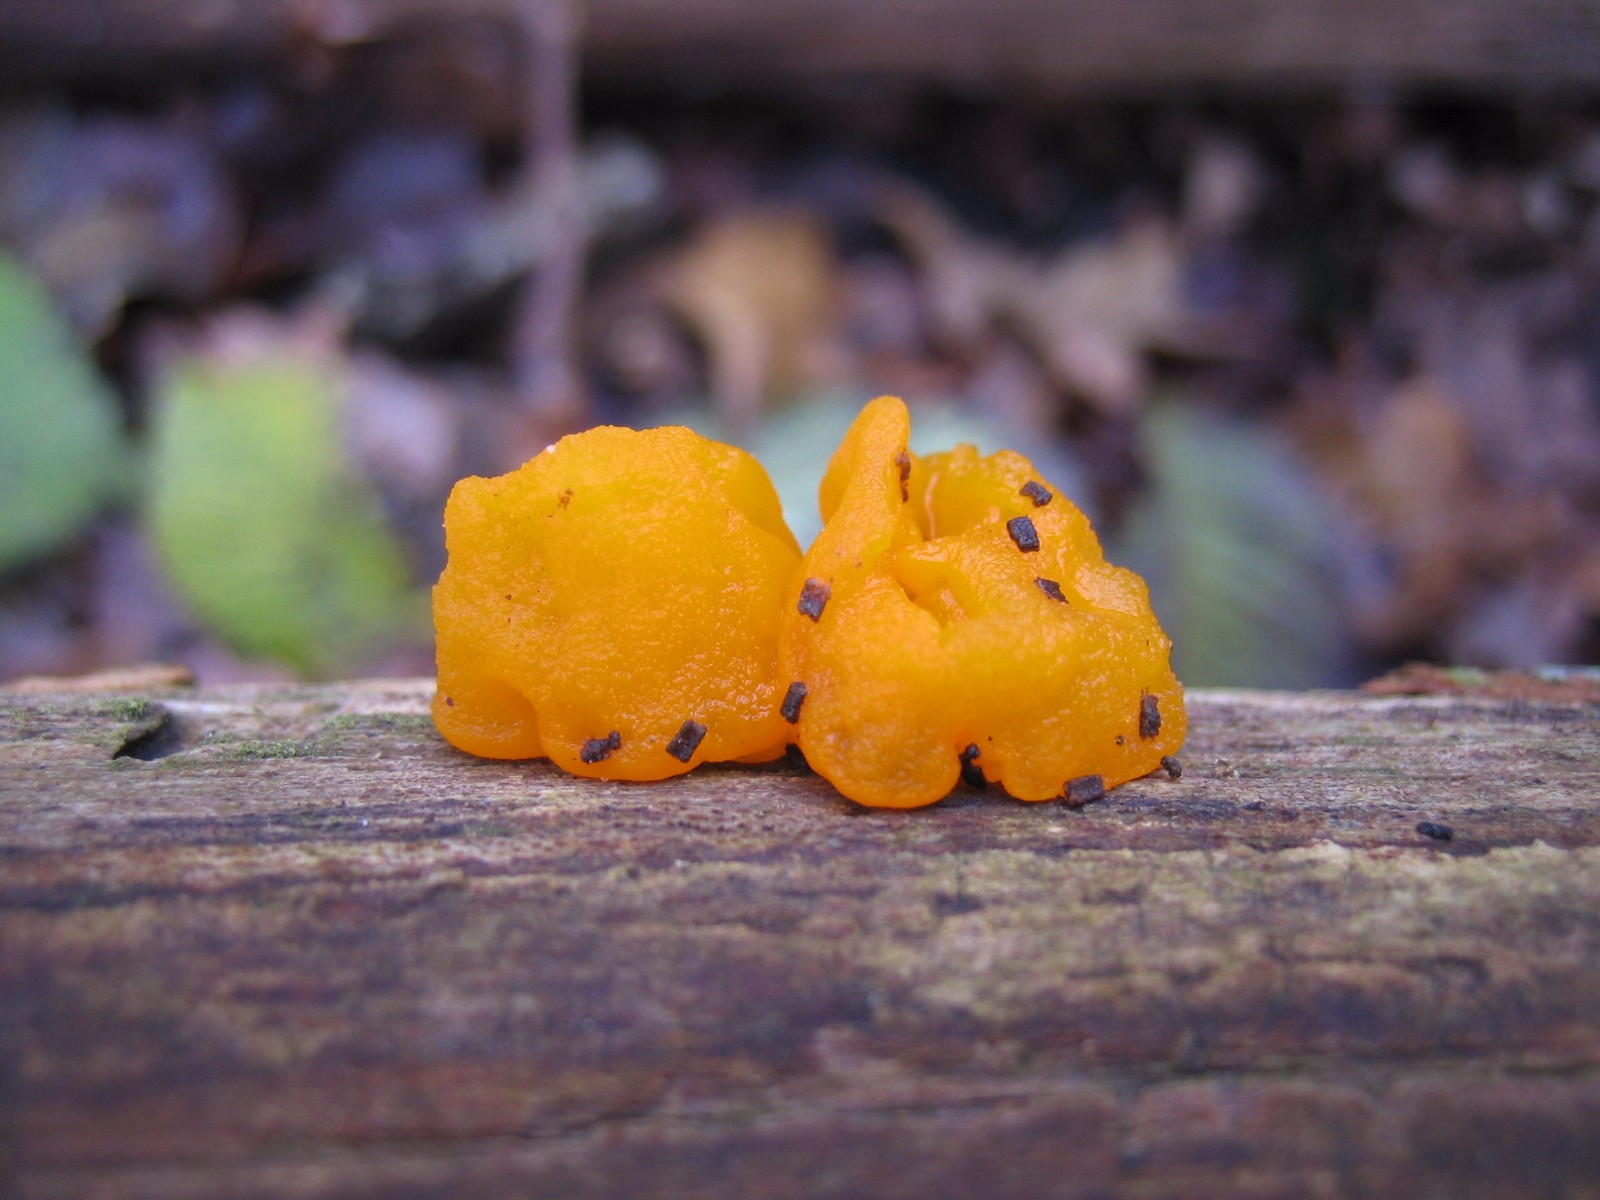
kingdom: Fungi
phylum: Basidiomycota
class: Tremellomycetes
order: Tremellales
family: Tremellaceae
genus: Tremella
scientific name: Tremella mesenterica
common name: gul bævresvamp
